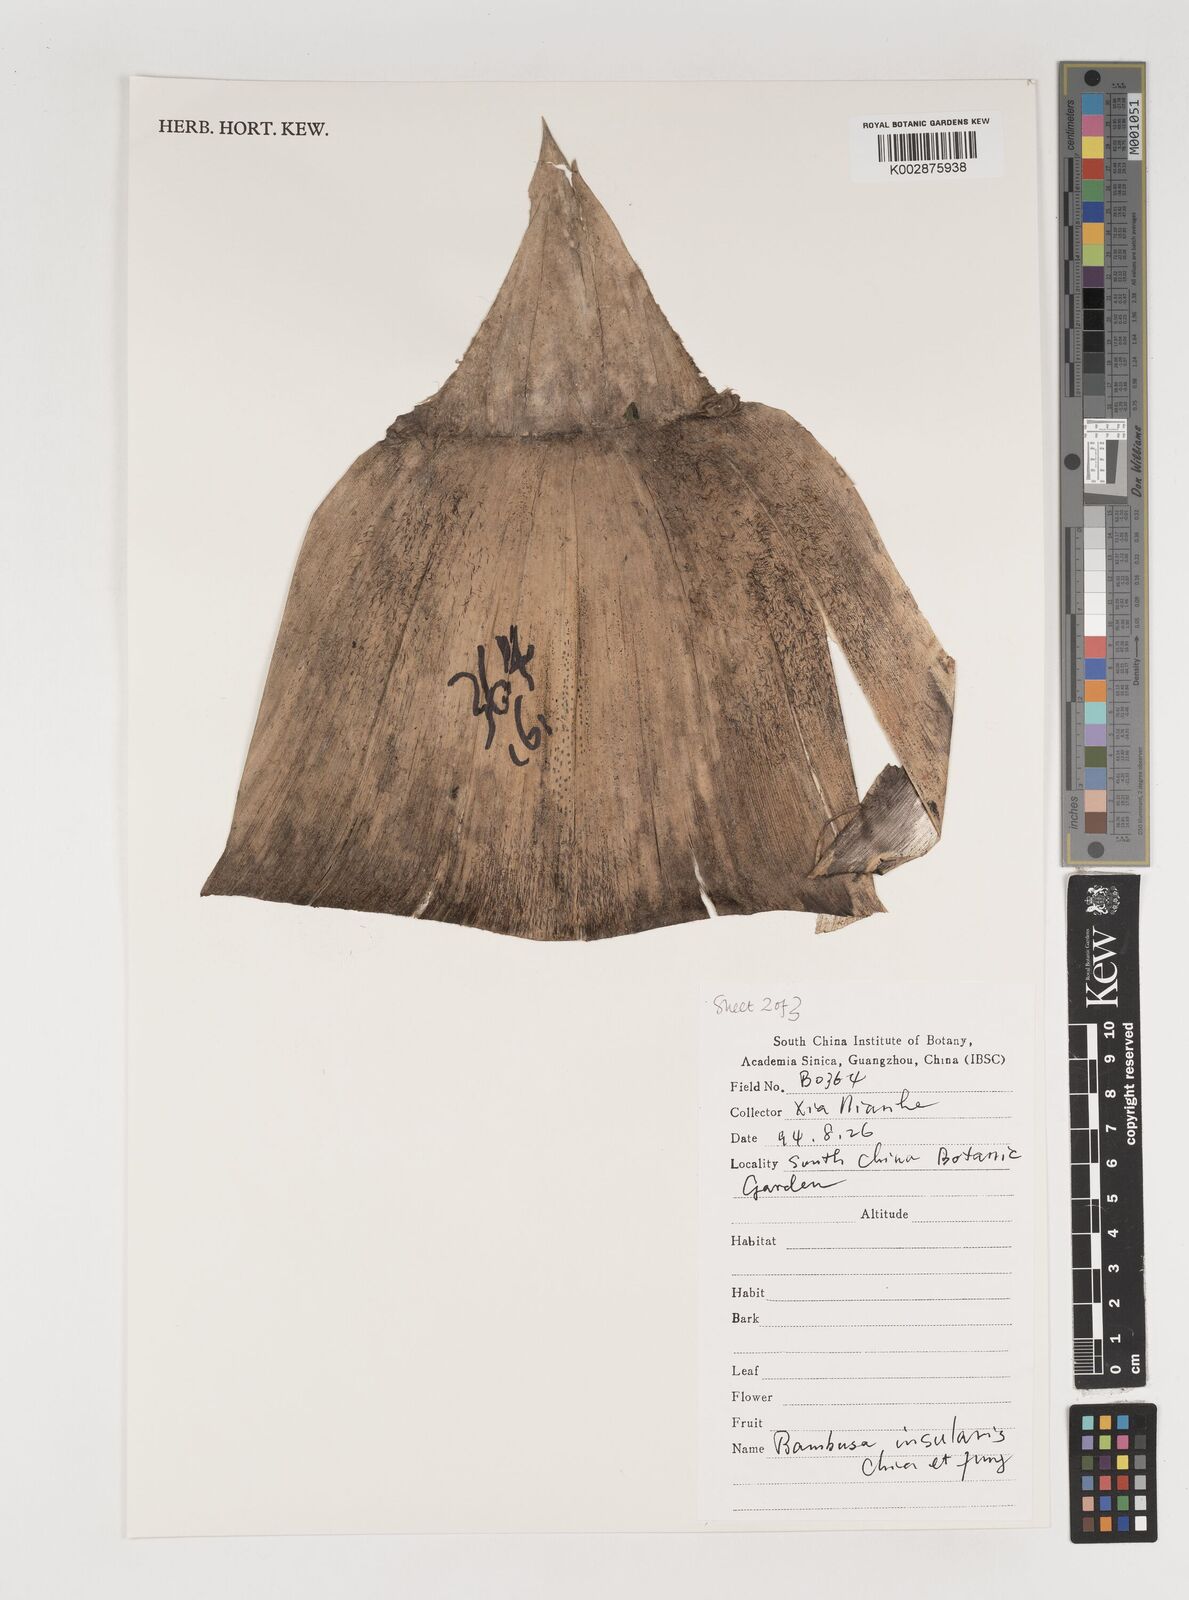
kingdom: Plantae
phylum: Tracheophyta
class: Liliopsida
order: Poales
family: Poaceae
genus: Bambusa
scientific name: Bambusa insularis
